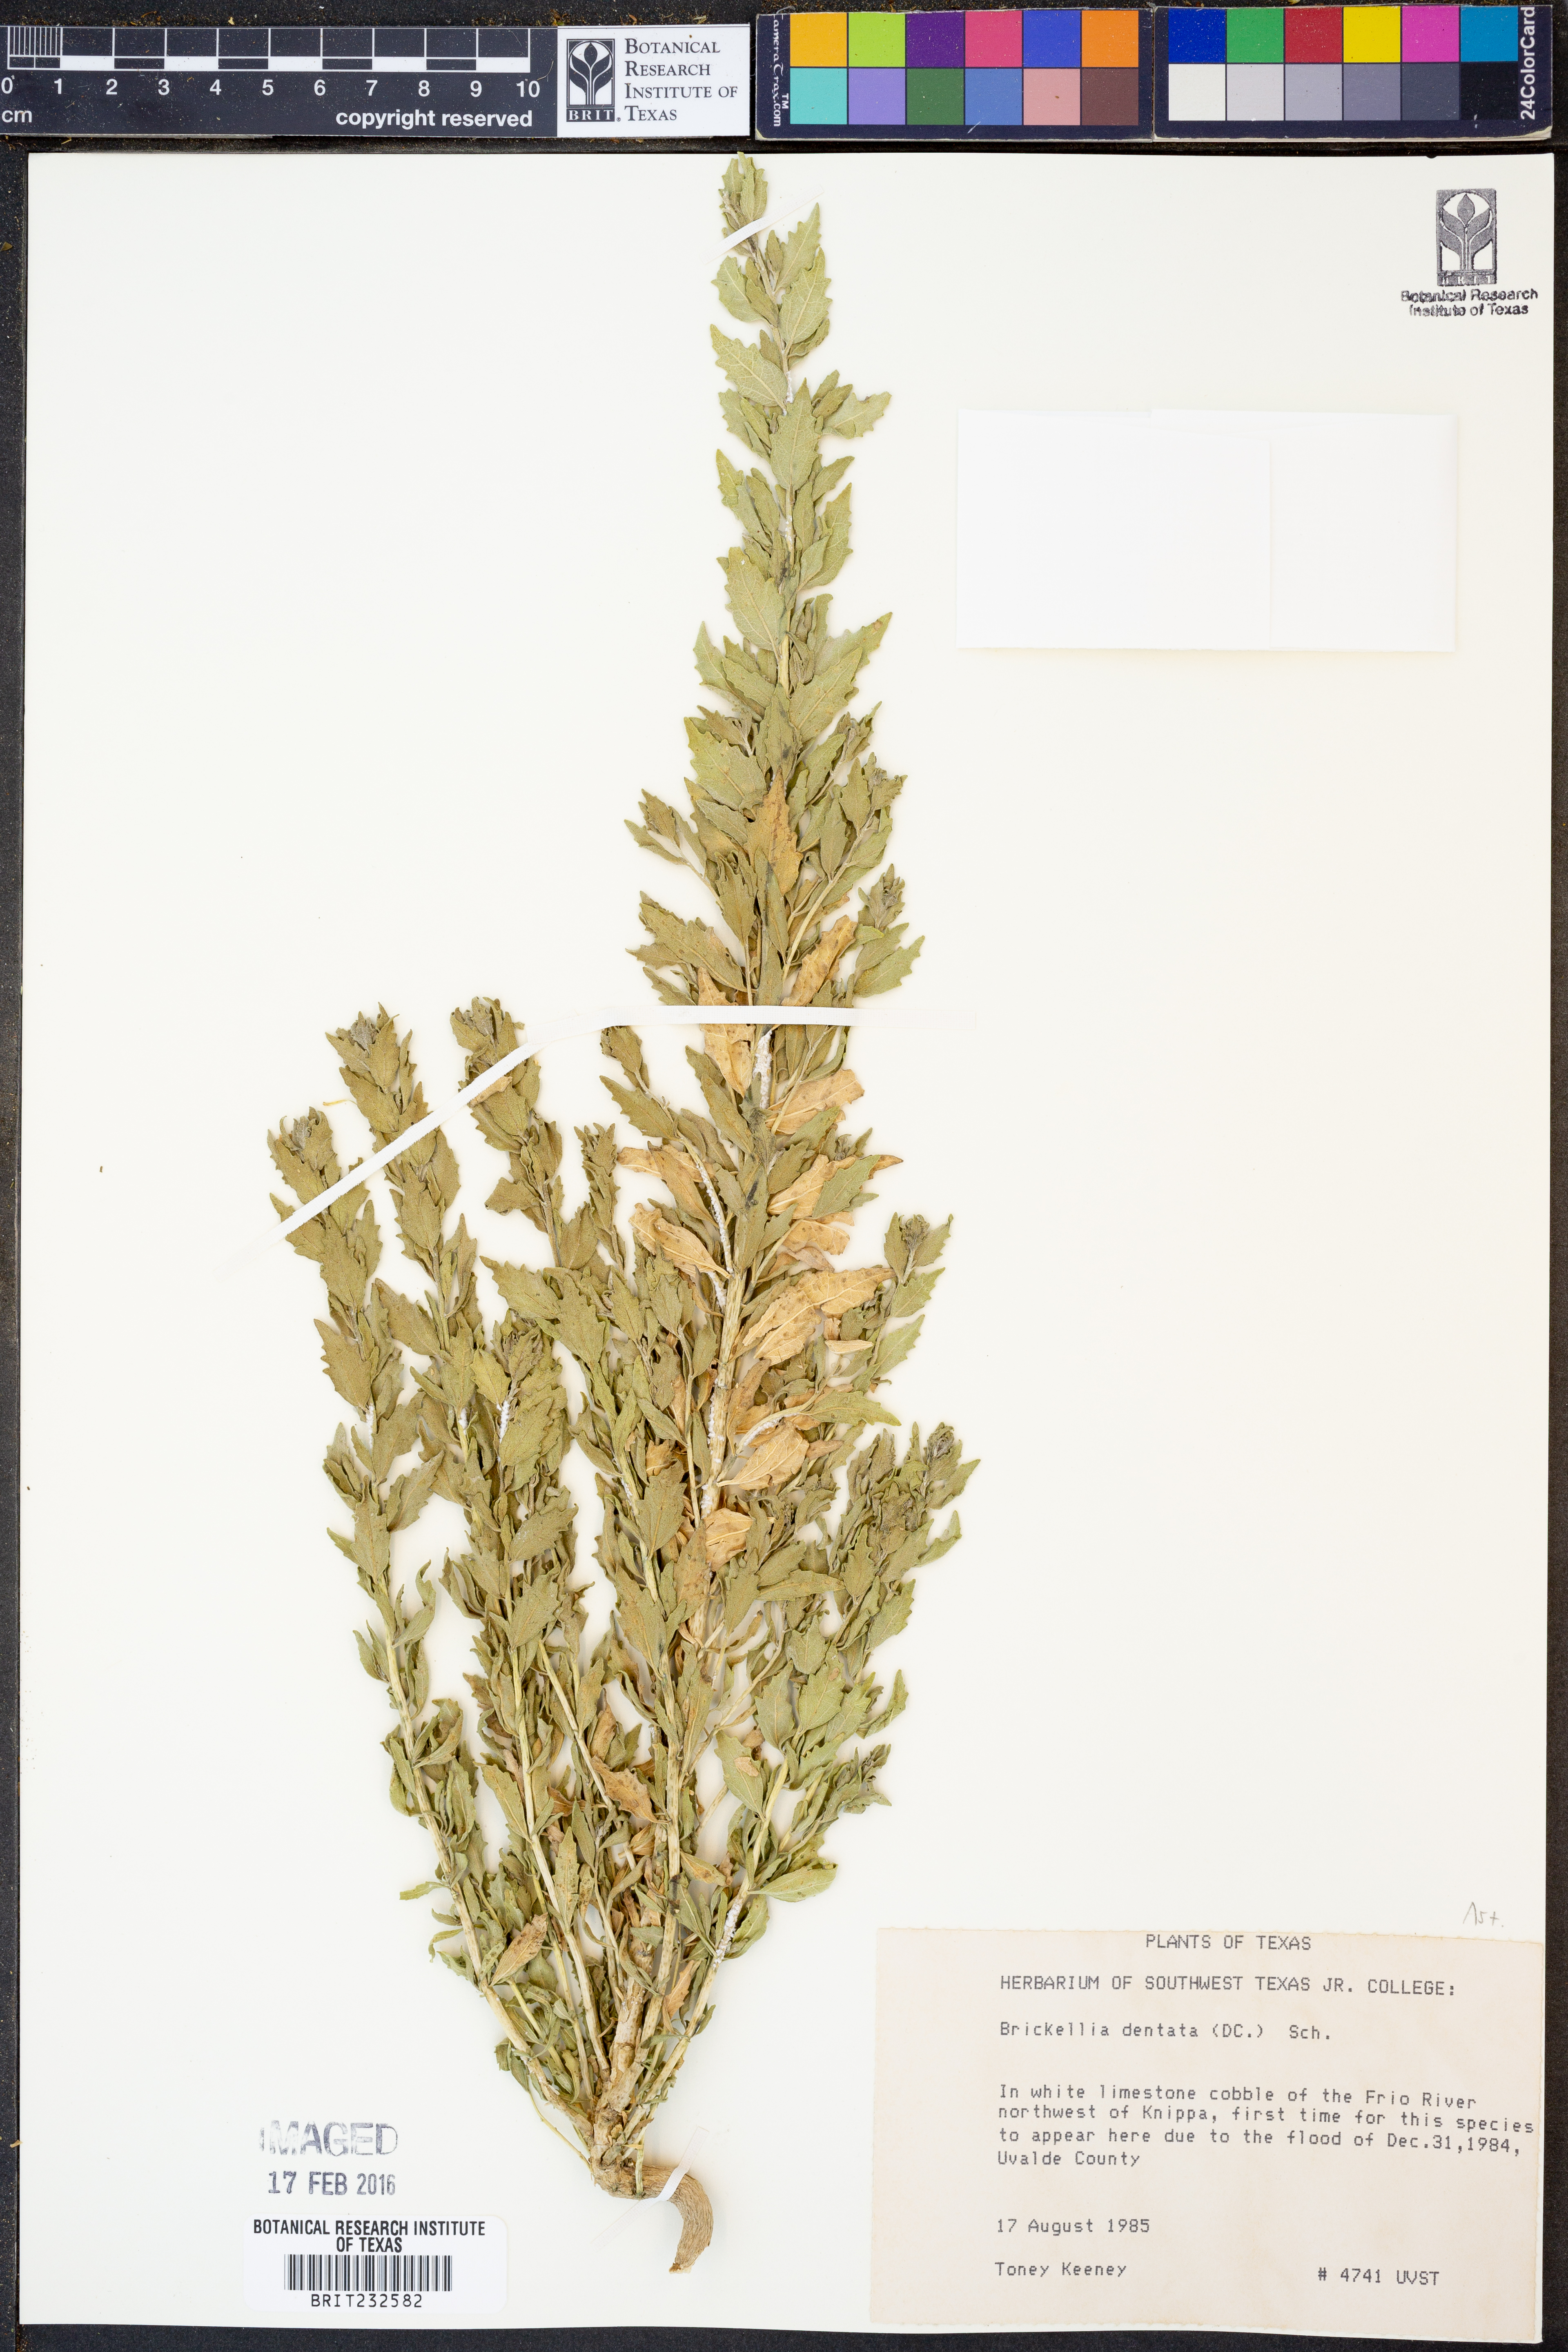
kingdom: Plantae
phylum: Tracheophyta
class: Magnoliopsida
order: Asterales
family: Asteraceae
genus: Brickellia
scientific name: Brickellia dentata
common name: Leafy brickellbush
